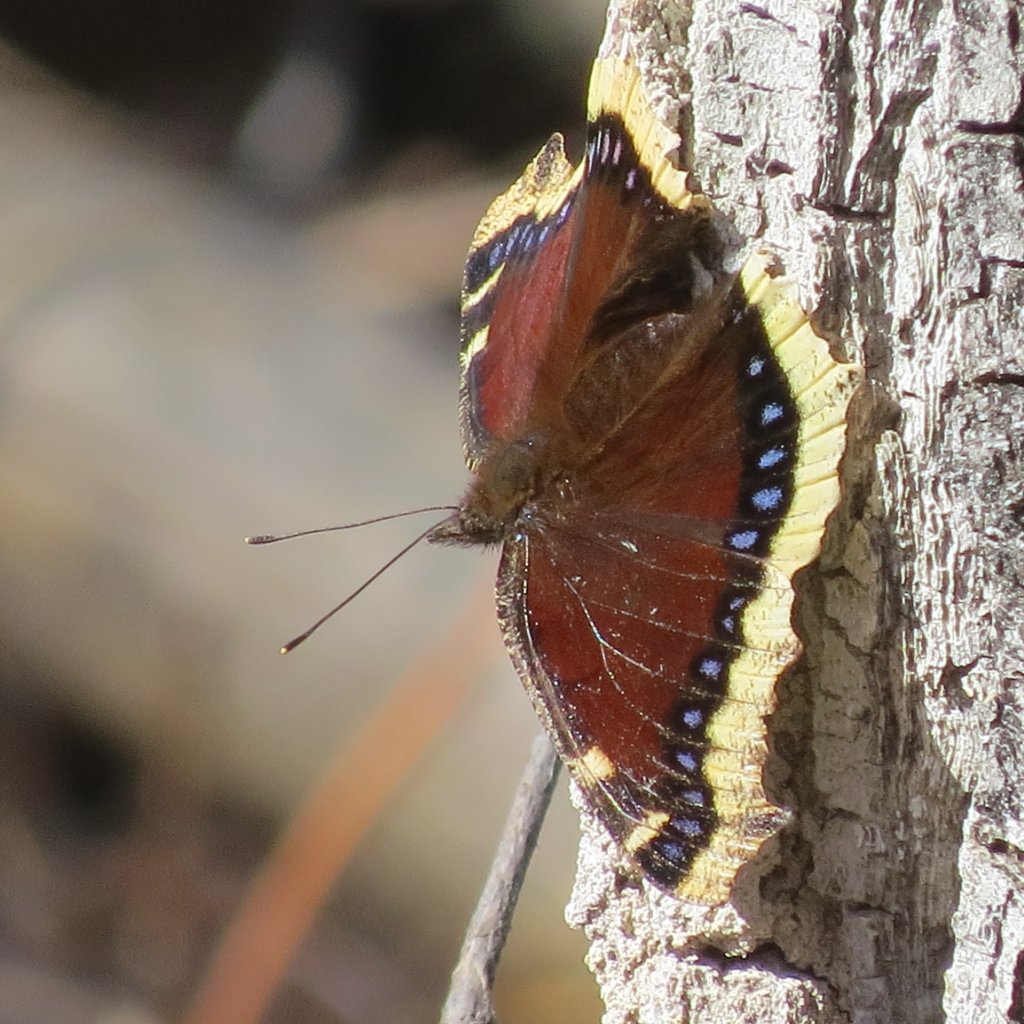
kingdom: Animalia
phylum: Arthropoda
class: Insecta
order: Lepidoptera
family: Nymphalidae
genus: Nymphalis
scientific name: Nymphalis antiopa
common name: Mourning Cloak
